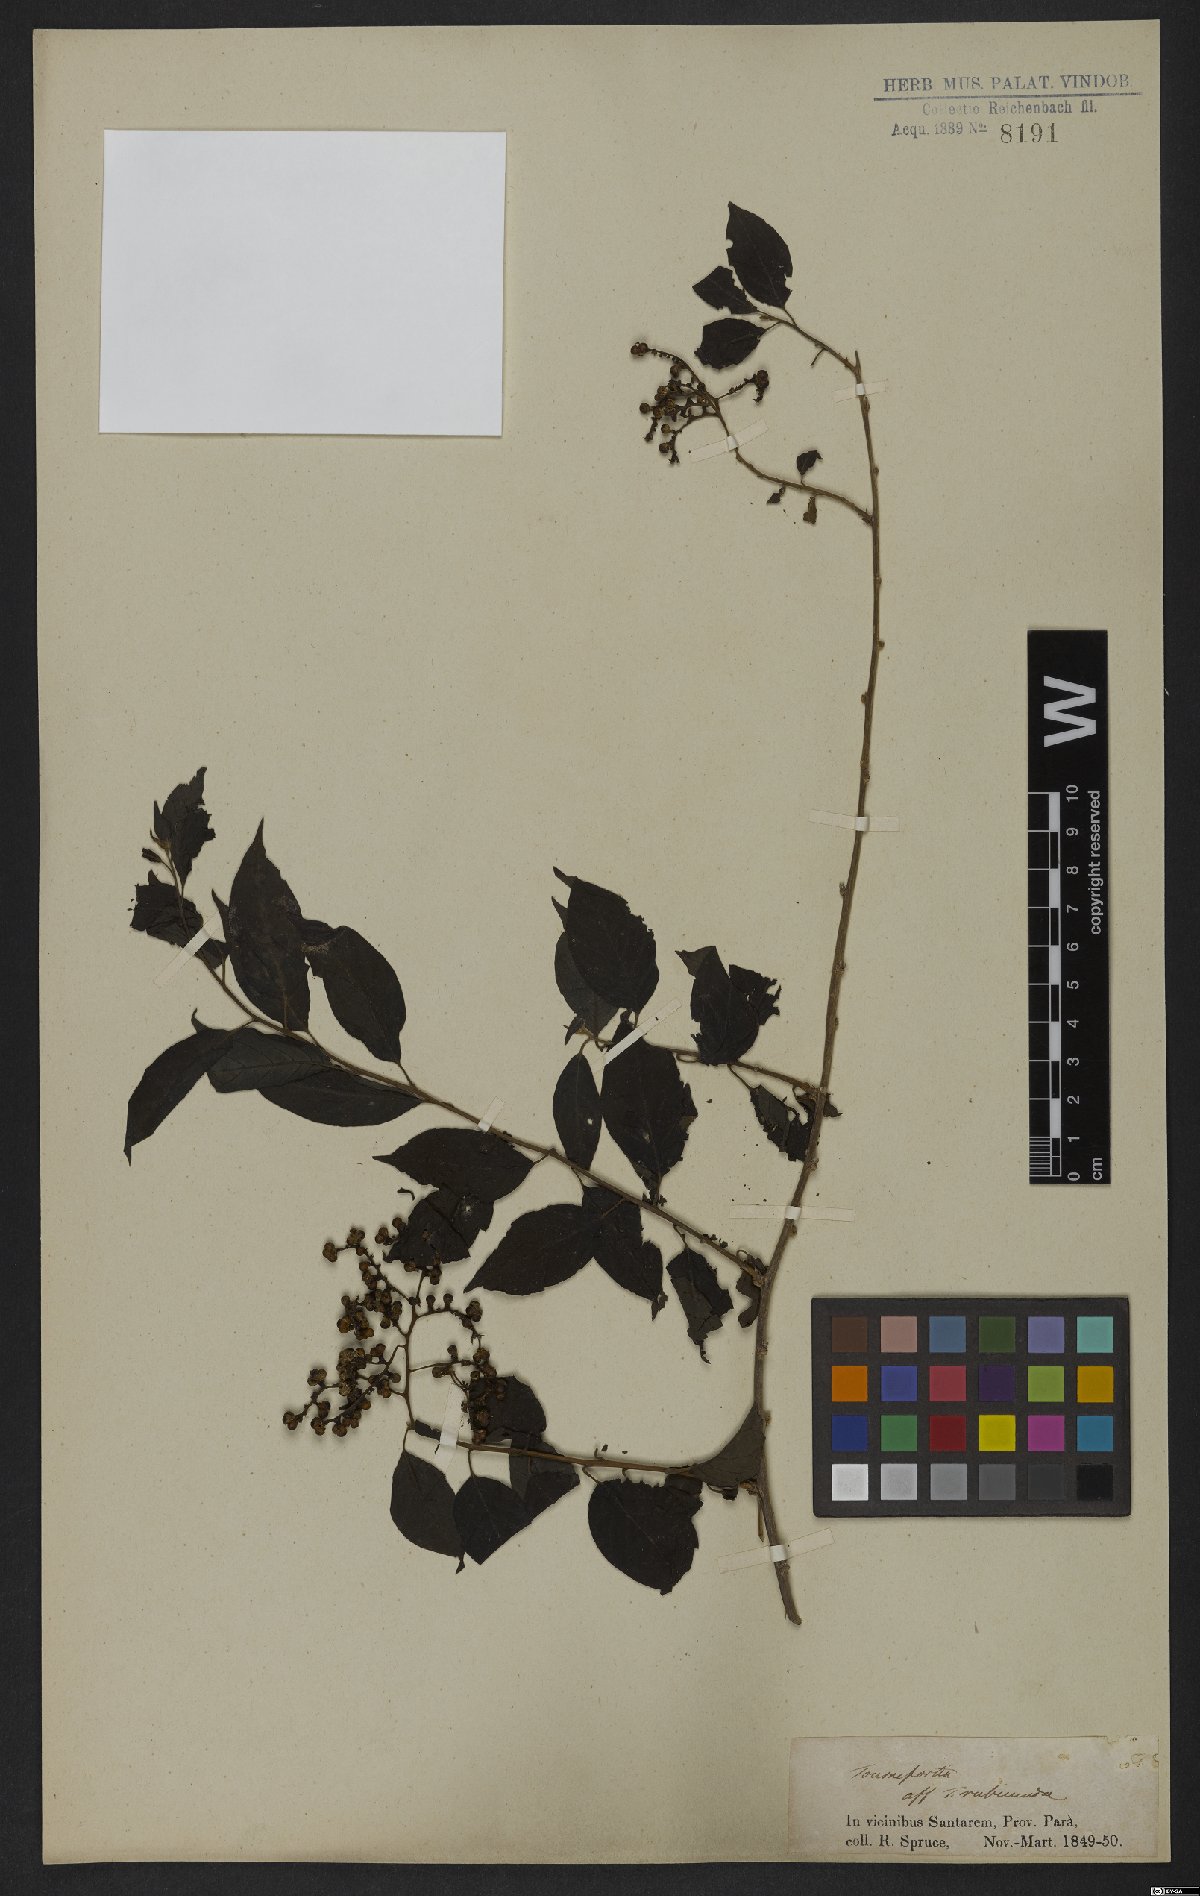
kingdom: Plantae
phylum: Tracheophyta
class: Magnoliopsida
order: Boraginales
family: Heliotropiaceae
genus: Myriopus
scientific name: Myriopus rubicundus
